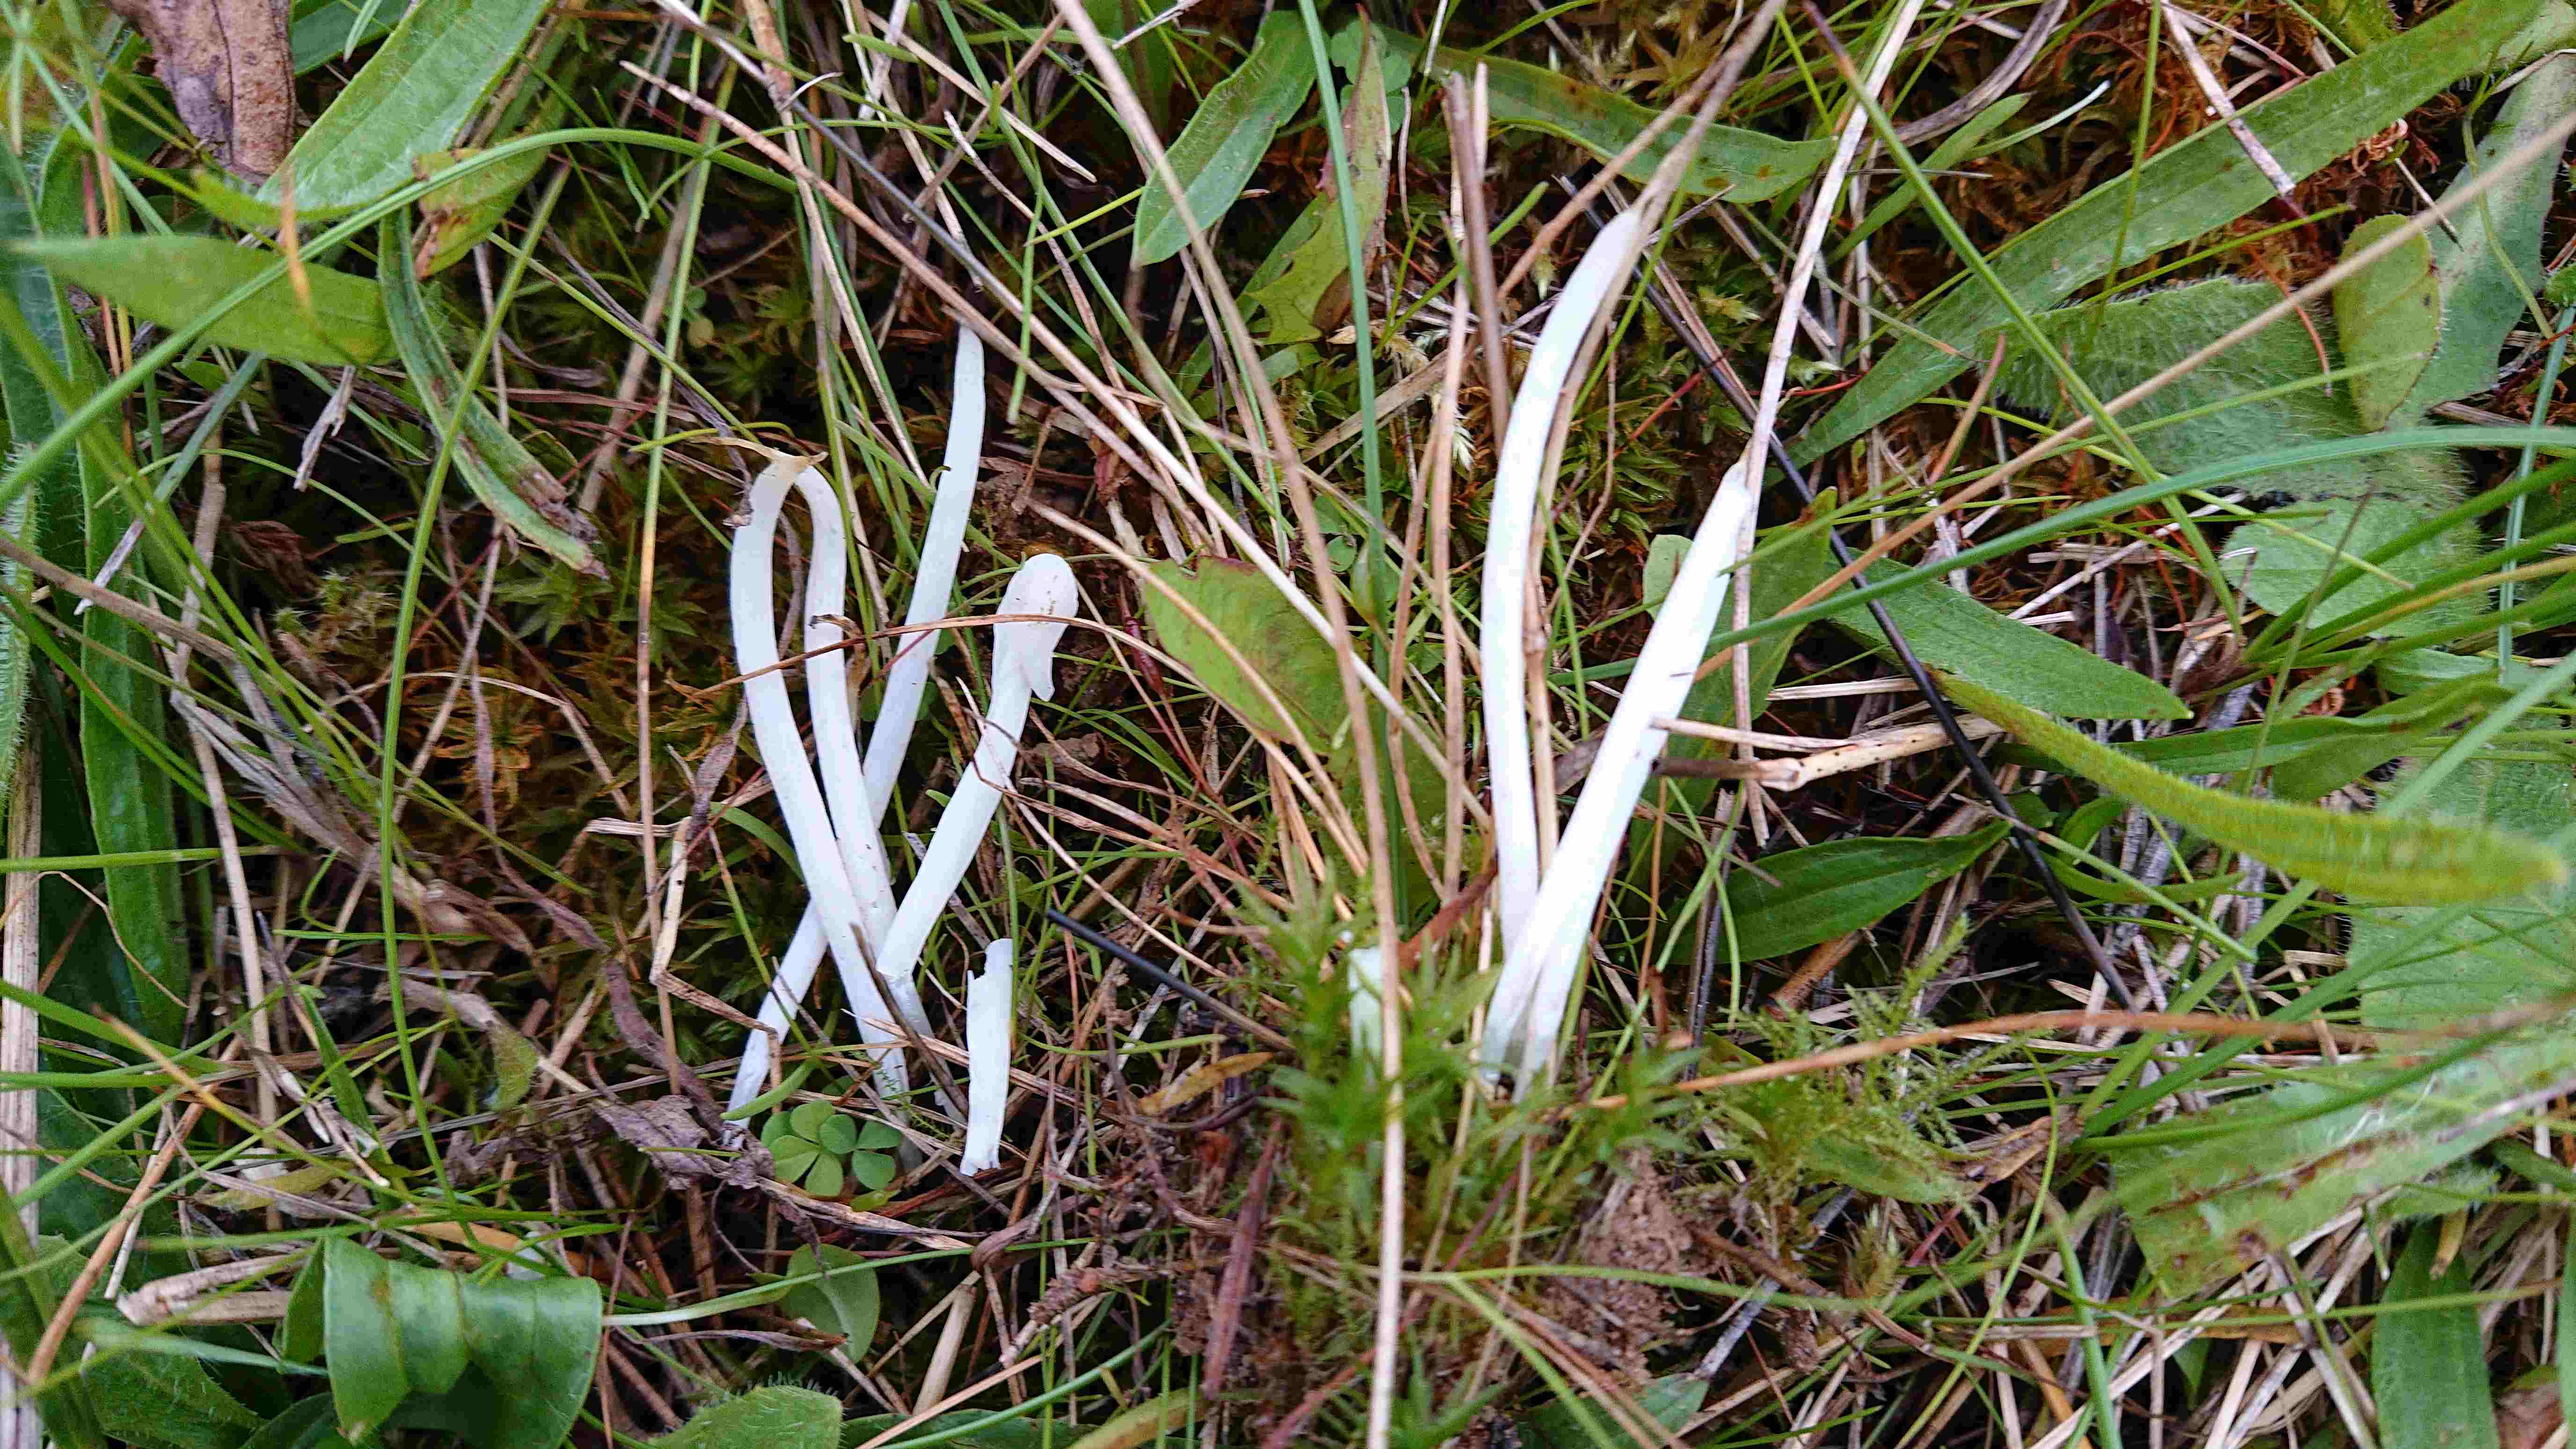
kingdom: Fungi
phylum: Basidiomycota
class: Agaricomycetes
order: Agaricales
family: Clavariaceae
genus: Clavaria
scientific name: Clavaria falcata
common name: hvid køllesvamp
